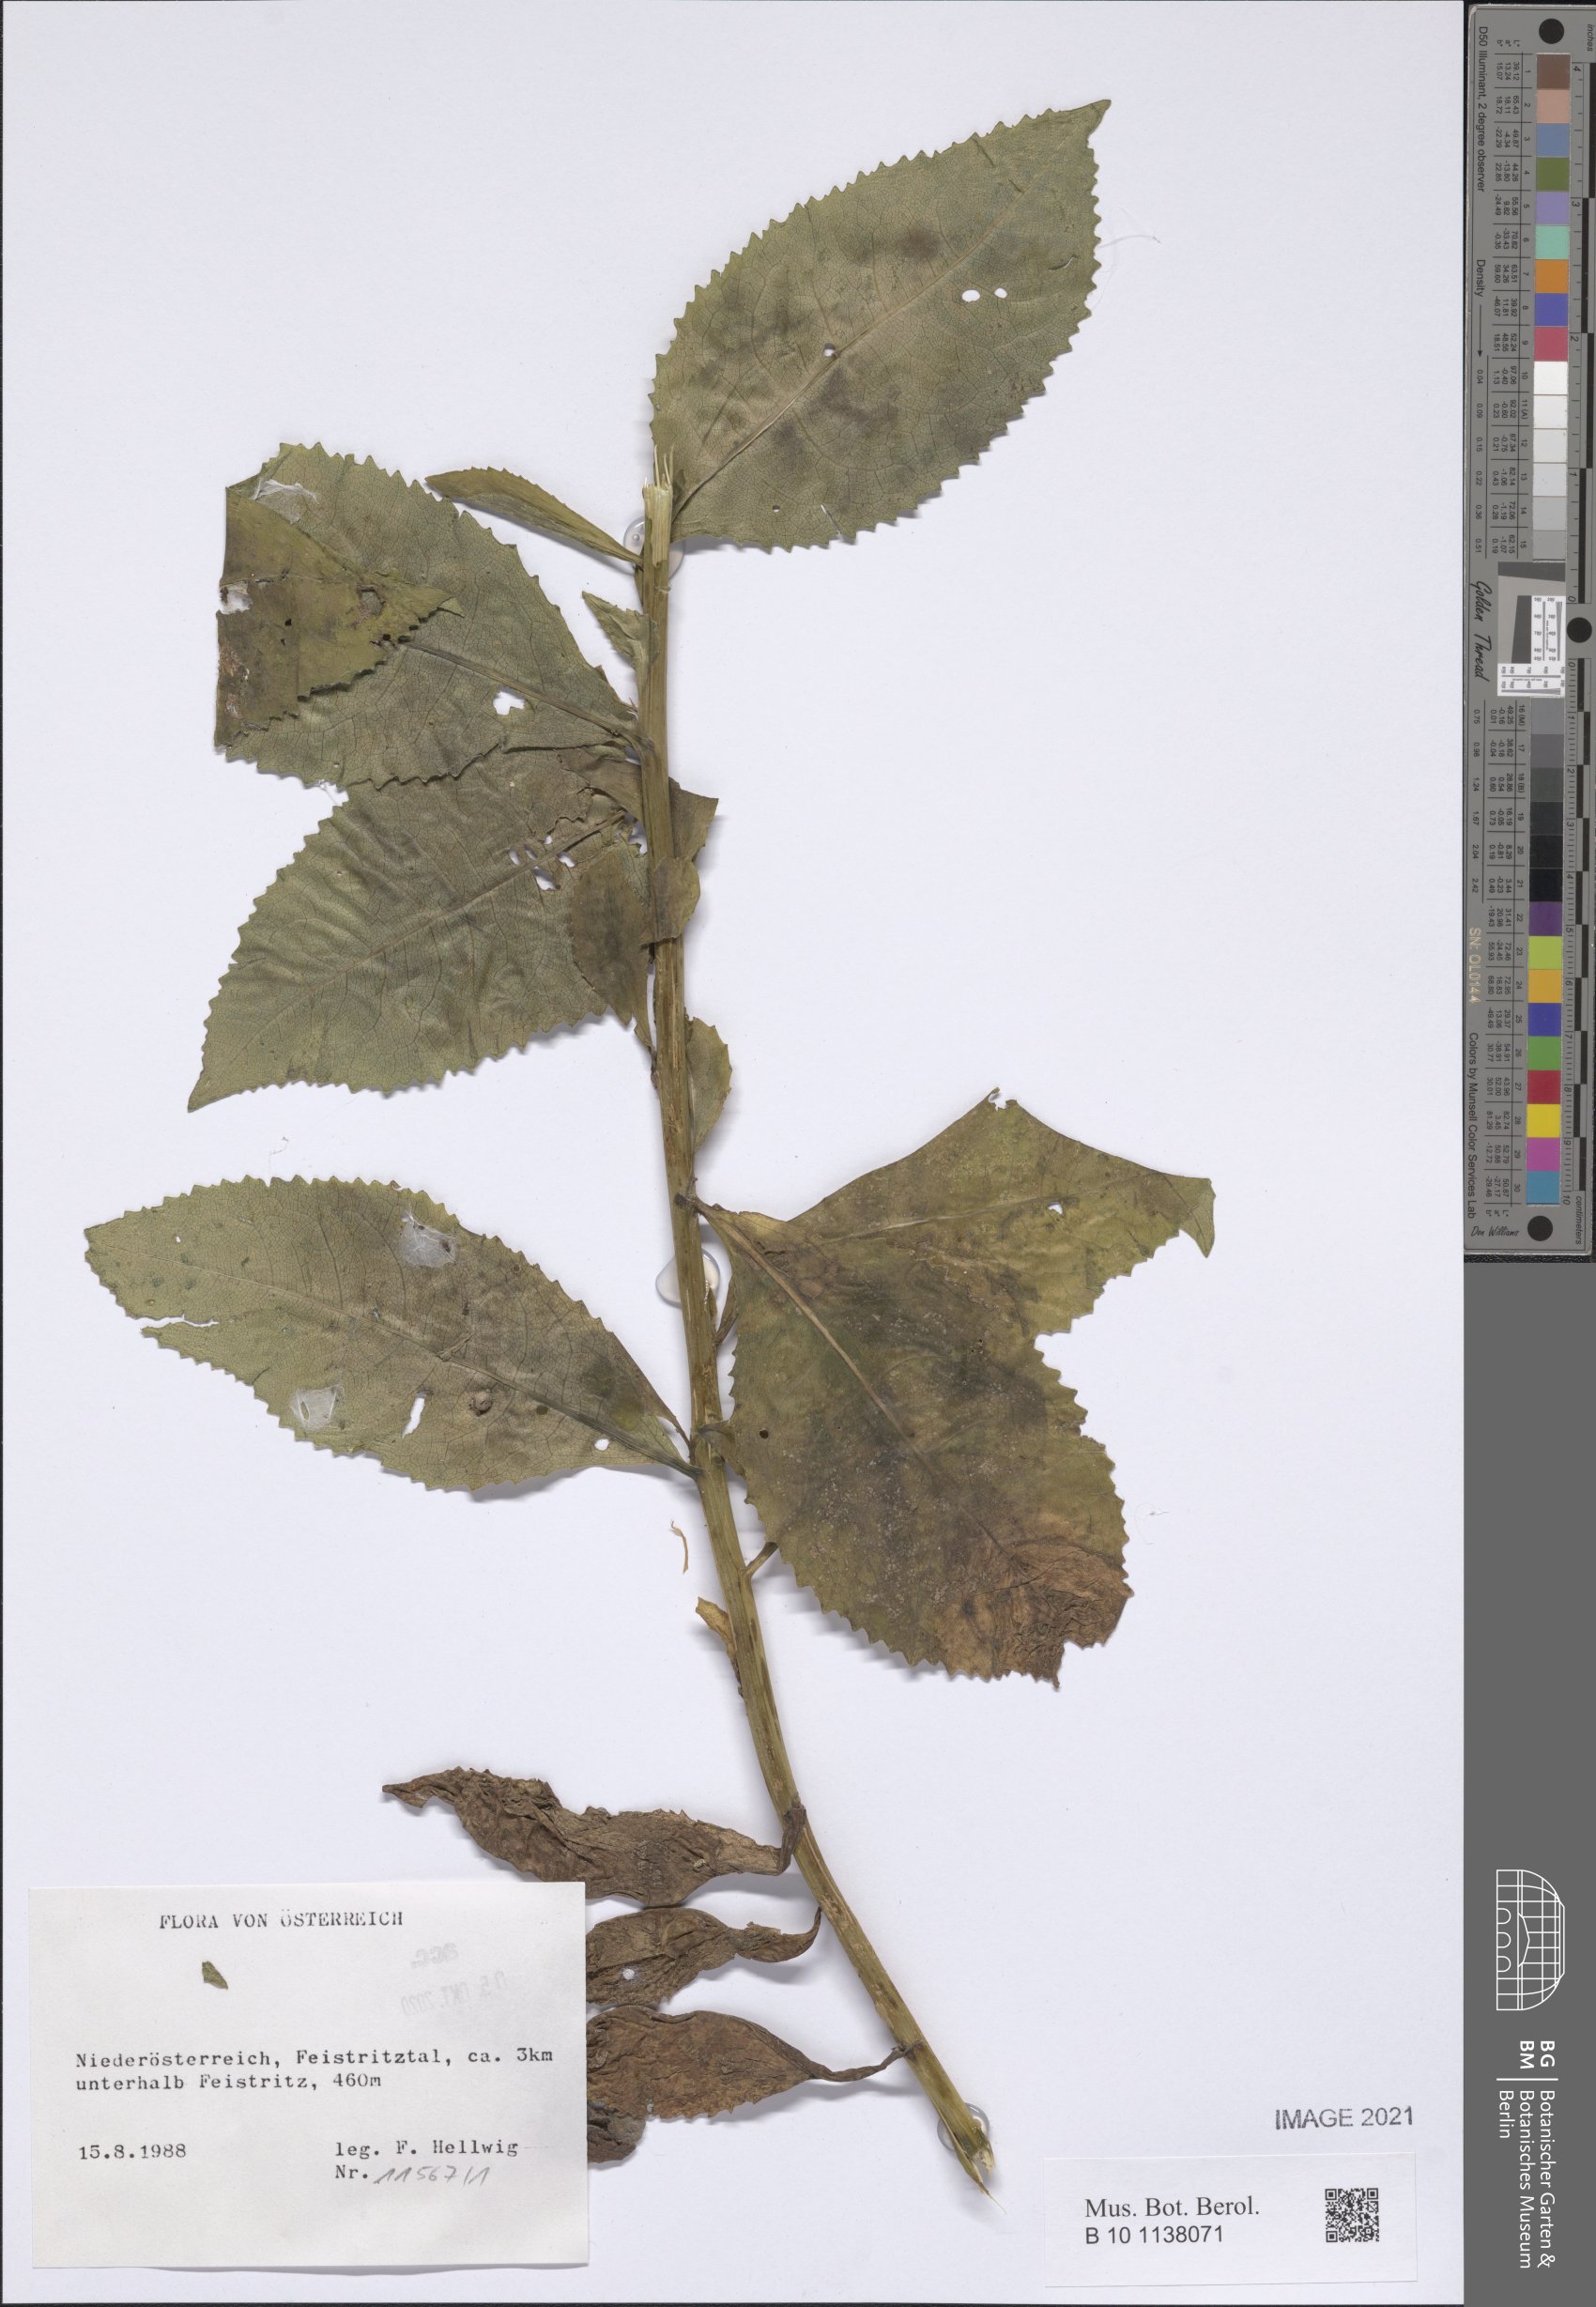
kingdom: Plantae
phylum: Tracheophyta
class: Magnoliopsida
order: Asterales
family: Asteraceae
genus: Senecio
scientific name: Senecio germanicus
